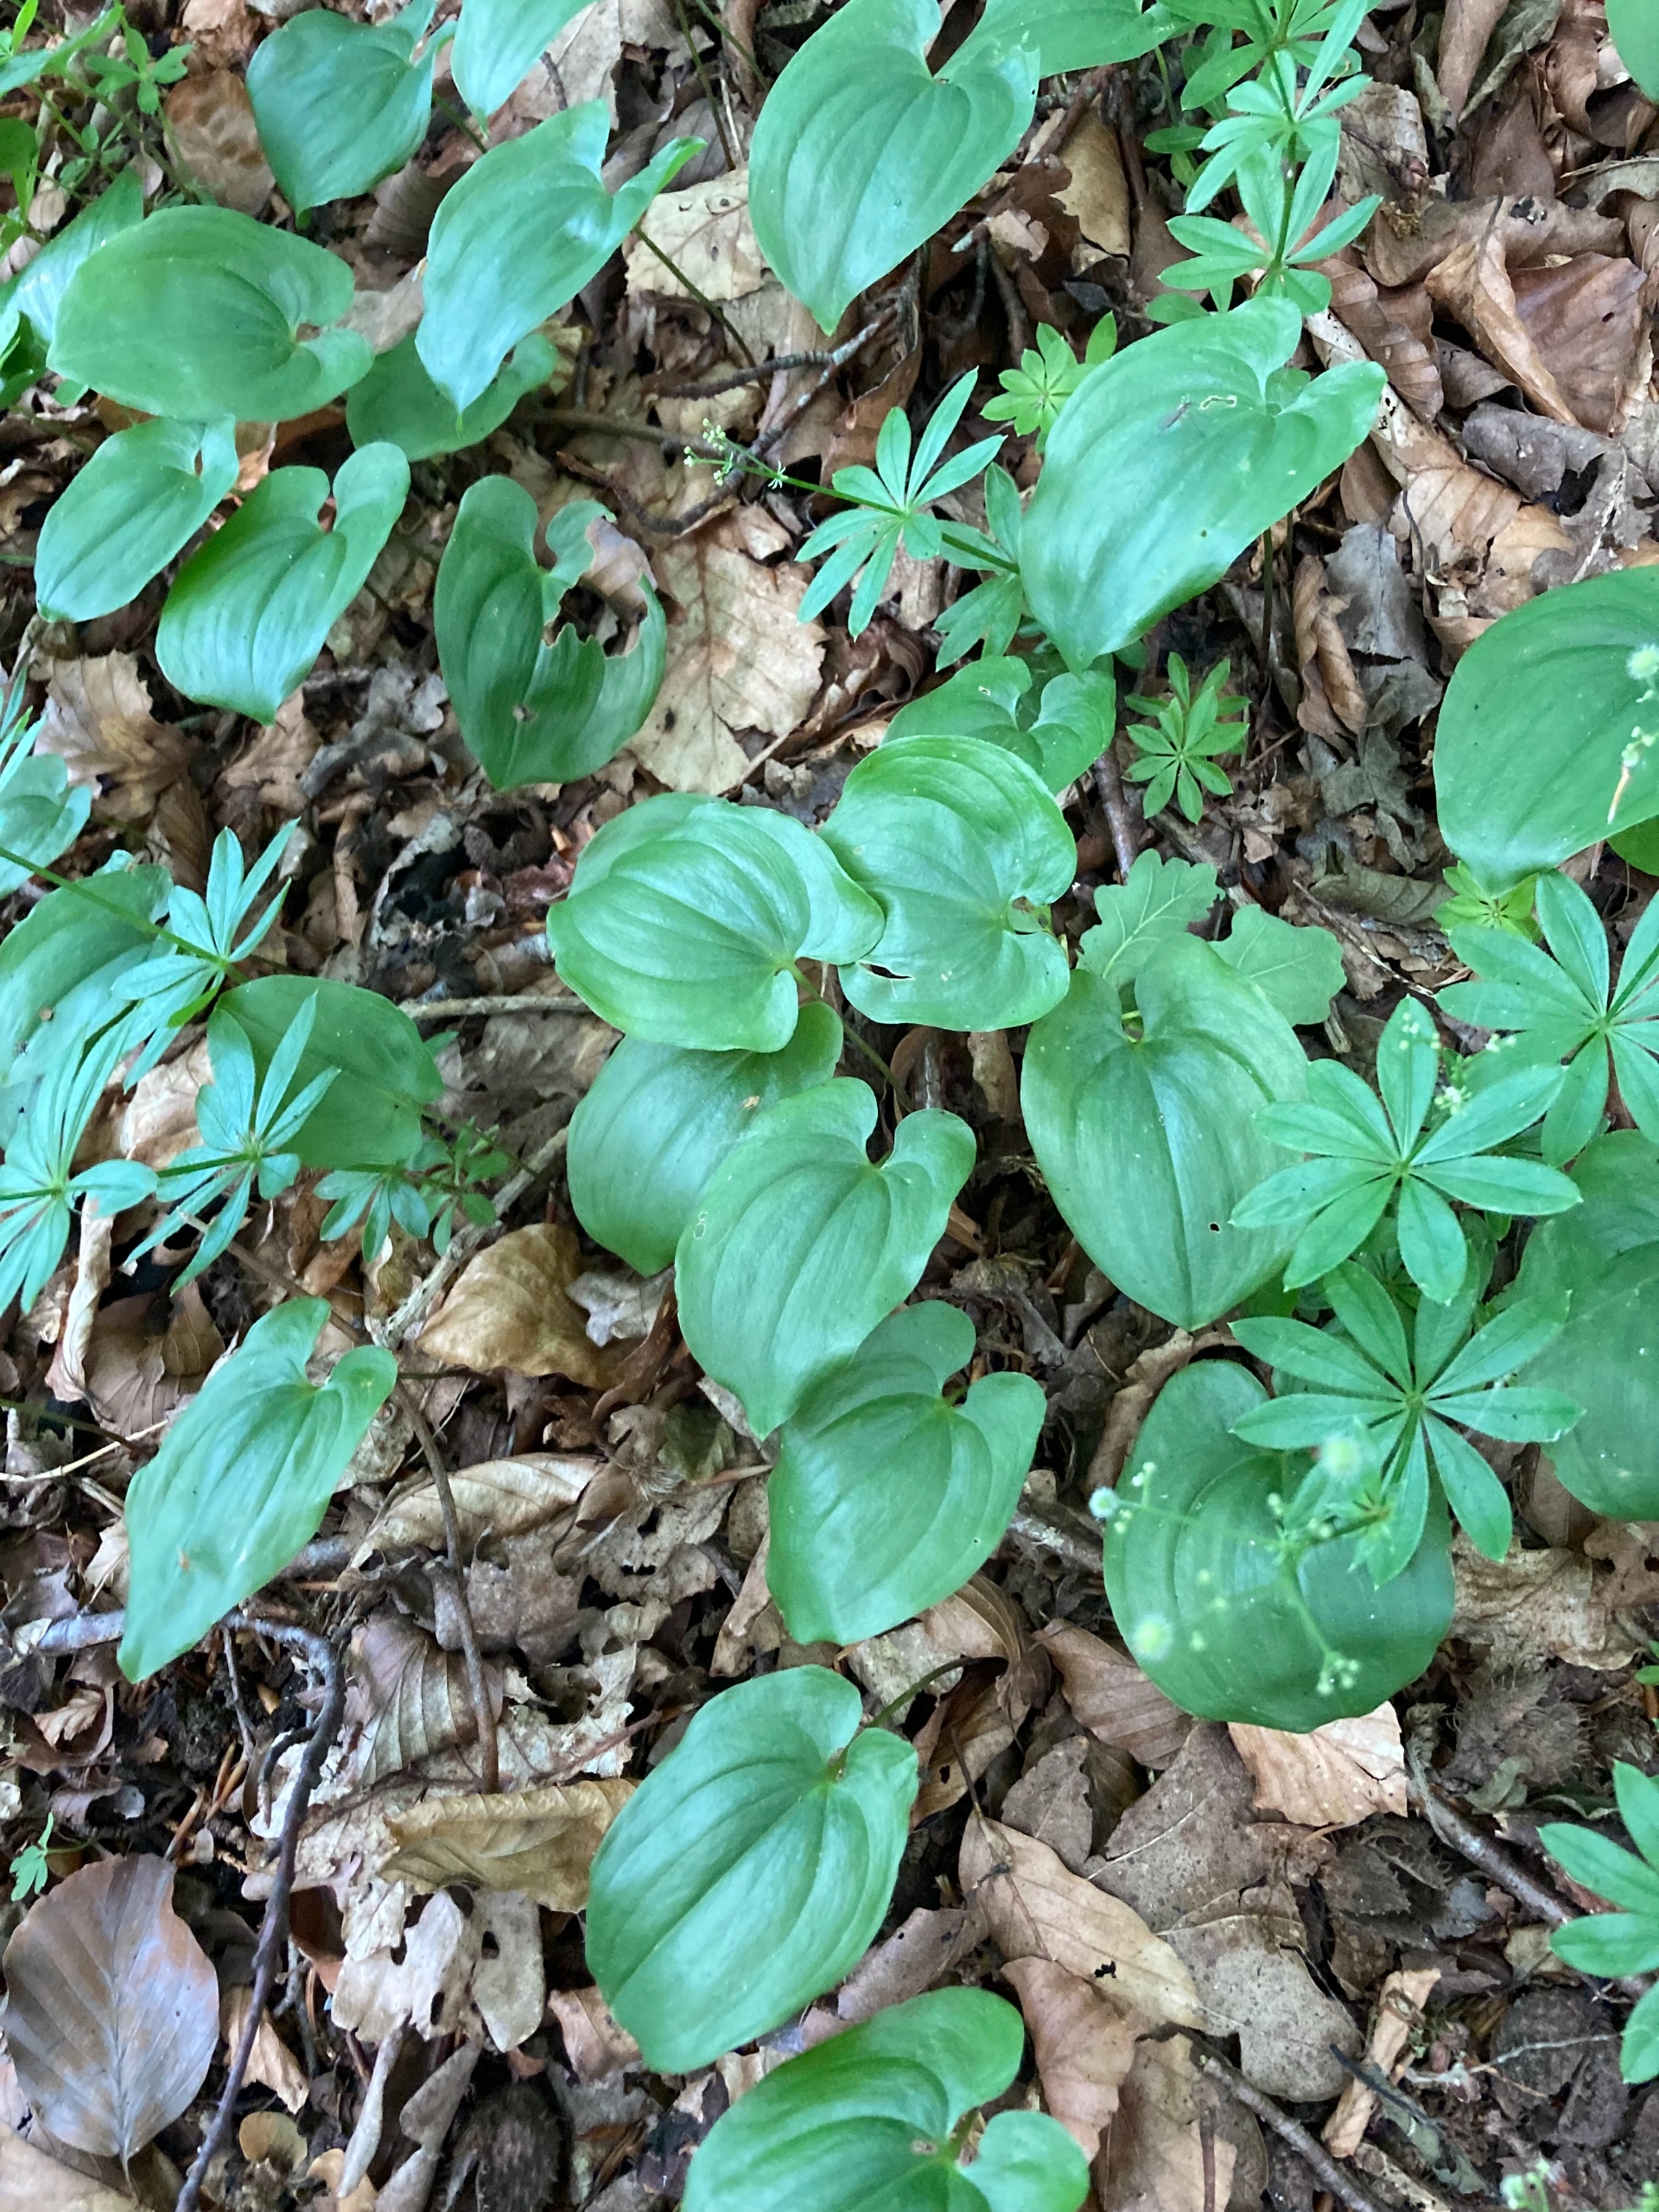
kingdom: Plantae
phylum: Tracheophyta
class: Liliopsida
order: Asparagales
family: Asparagaceae
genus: Maianthemum
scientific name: Maianthemum bifolium
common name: Majblomst
